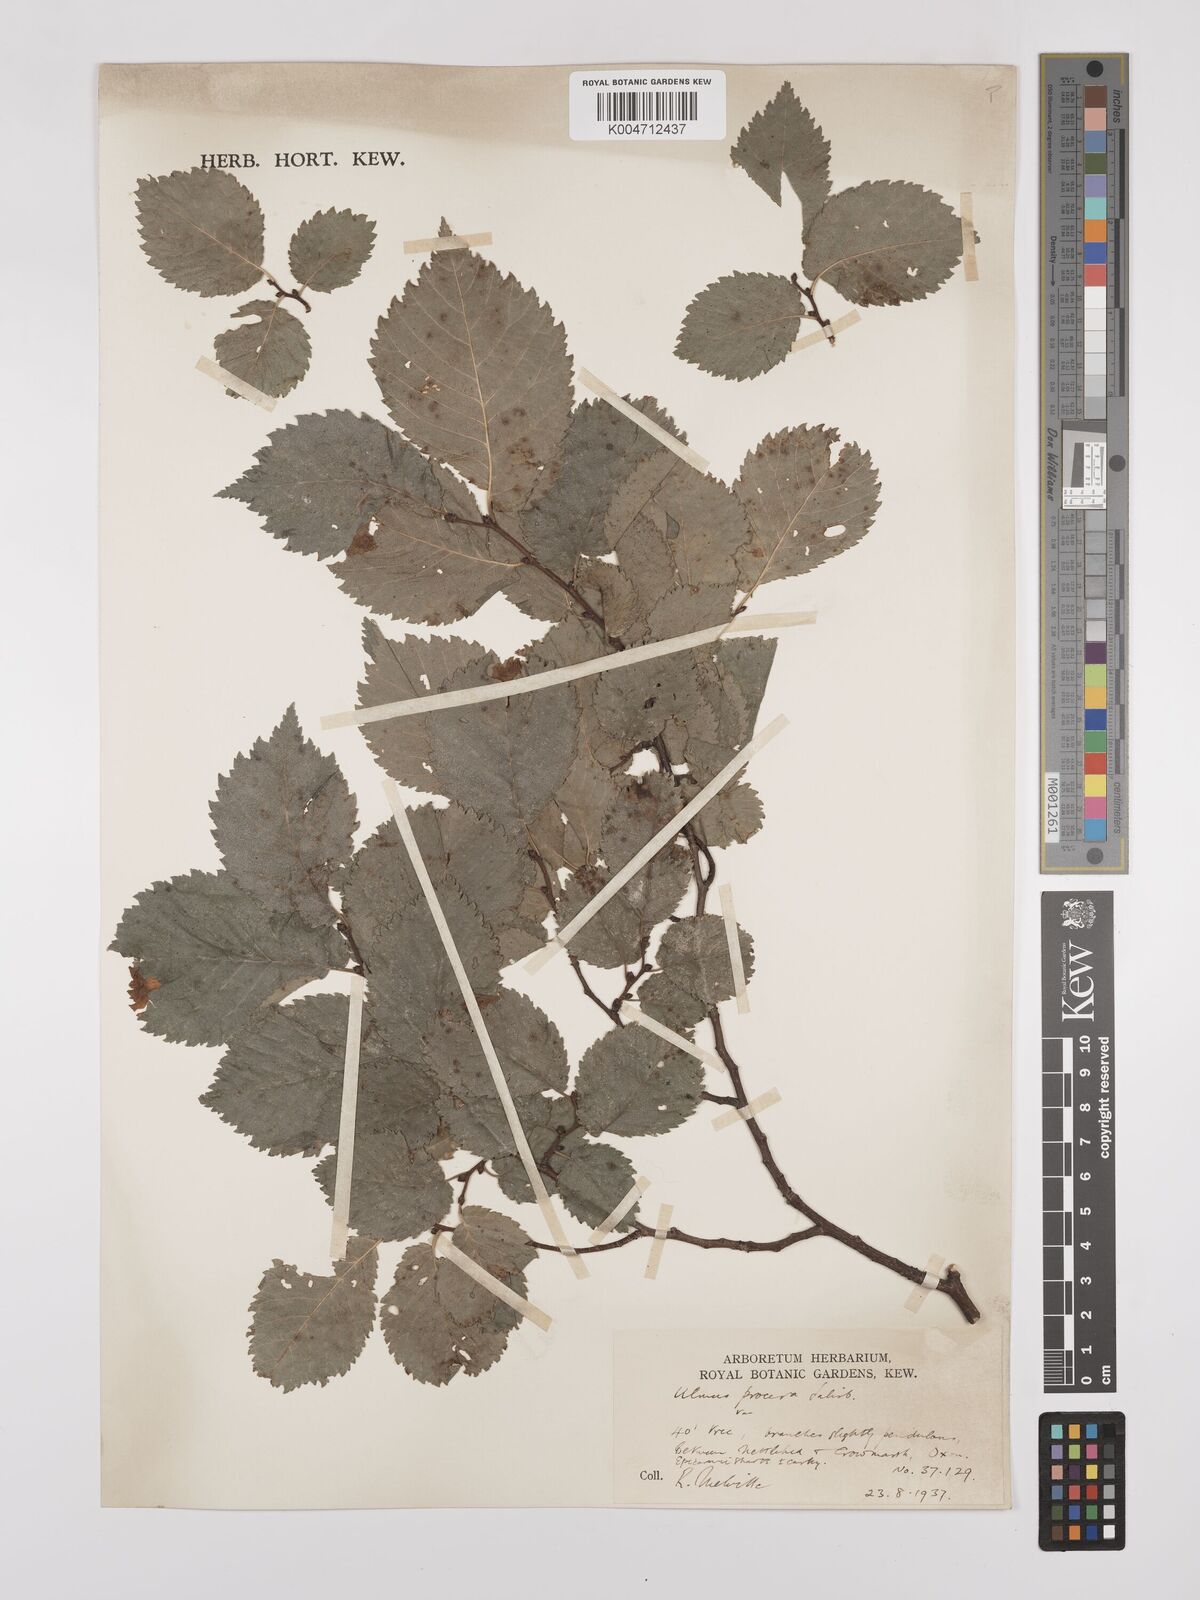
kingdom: Plantae
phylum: Tracheophyta
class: Magnoliopsida
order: Rosales
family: Ulmaceae
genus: Ulmus
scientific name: Ulmus minor
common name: Small-leaved elm
